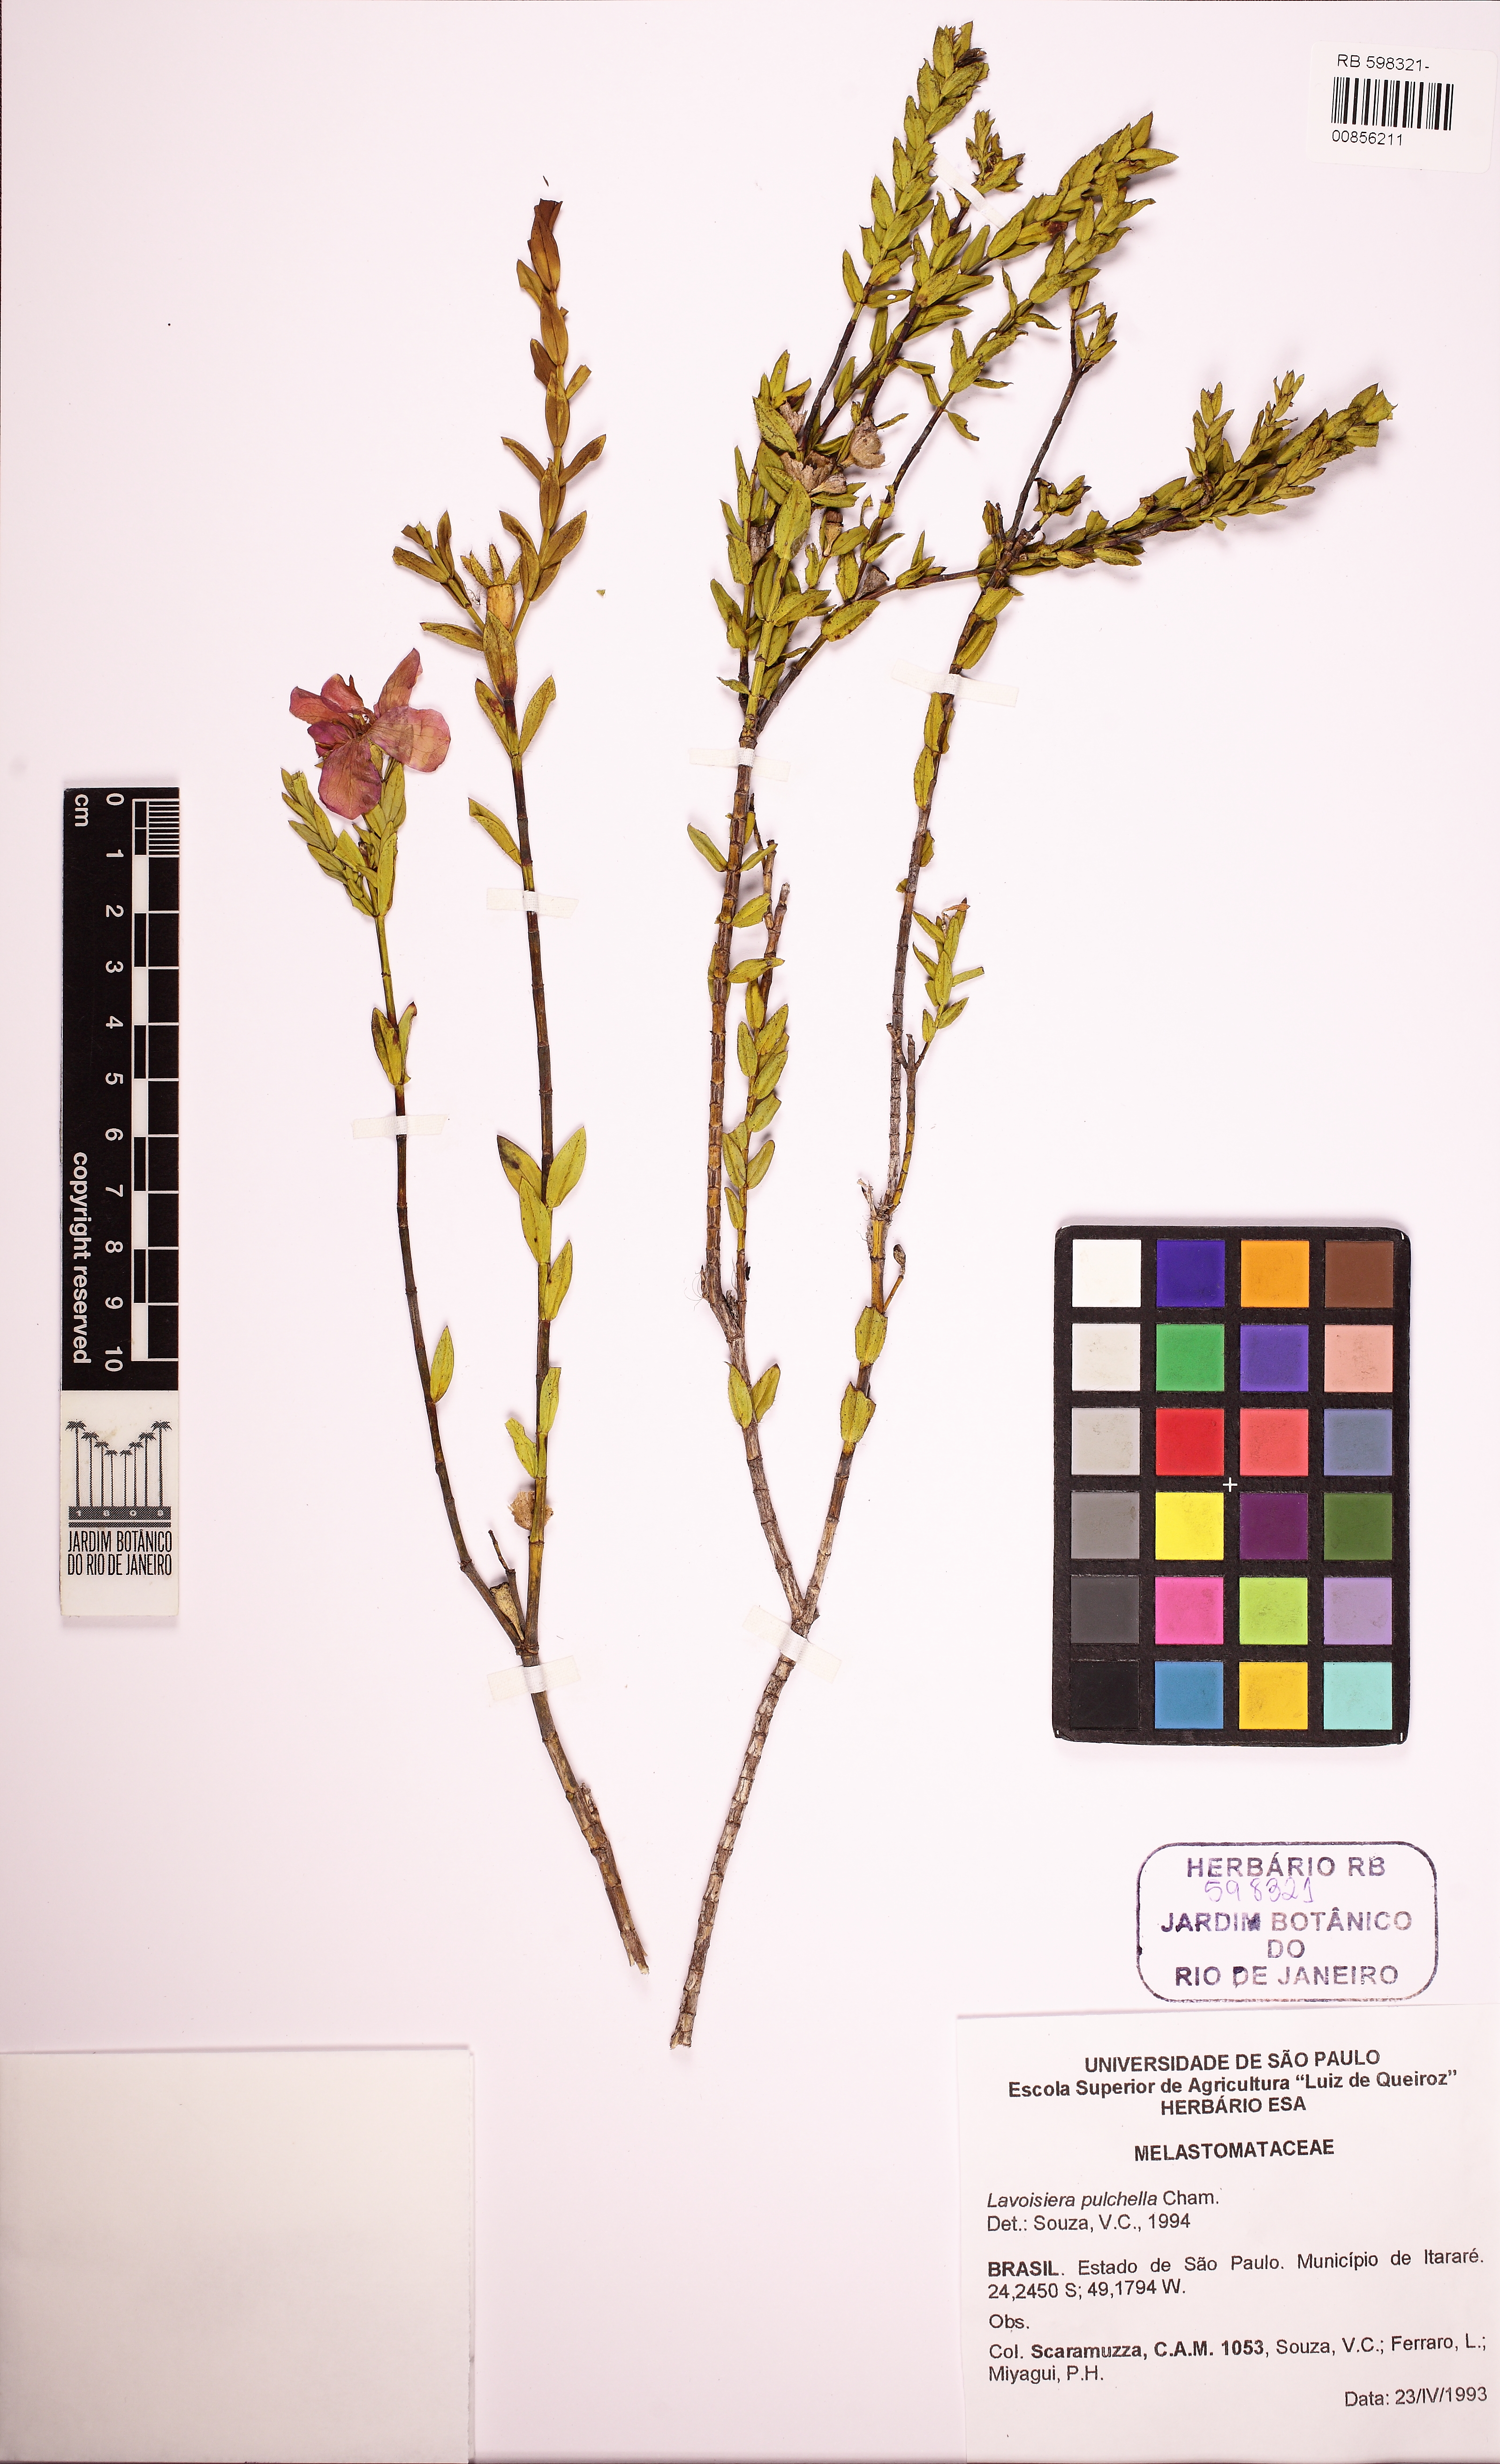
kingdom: Plantae
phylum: Tracheophyta
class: Magnoliopsida
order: Myrtales
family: Melastomataceae
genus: Microlicia
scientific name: Microlicia australis
